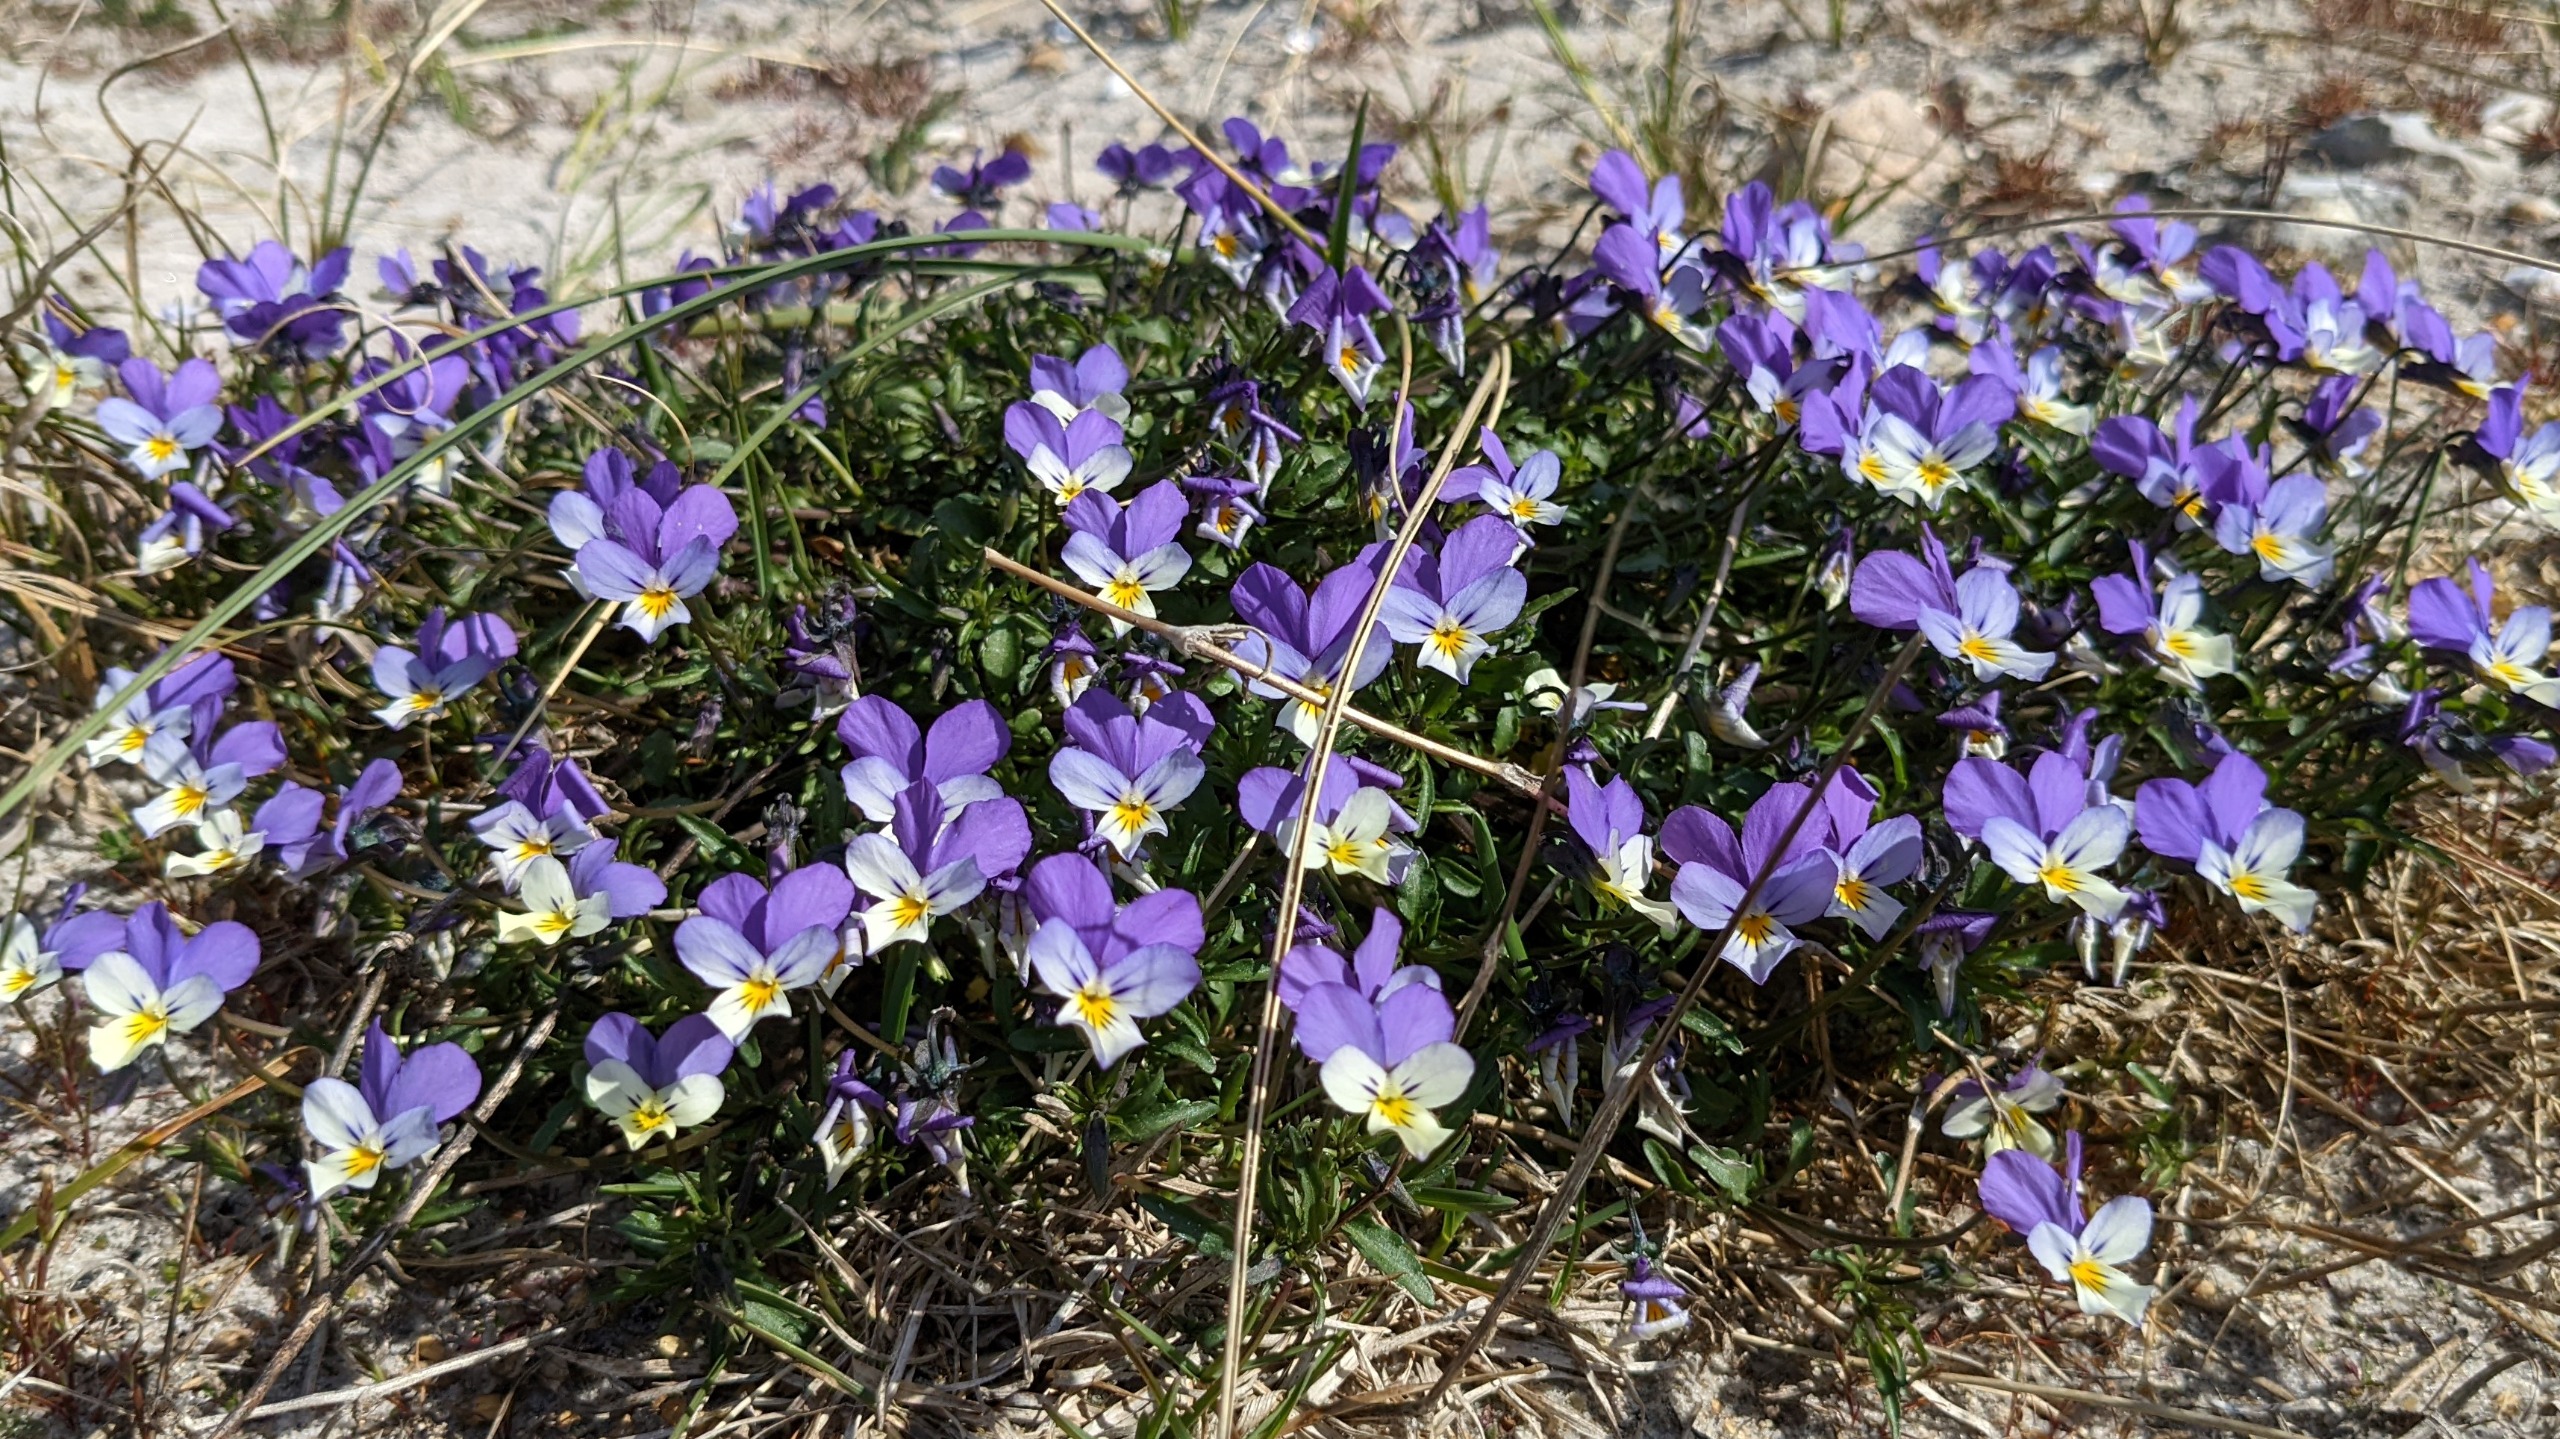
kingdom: Plantae
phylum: Tracheophyta
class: Magnoliopsida
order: Malpighiales
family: Violaceae
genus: Viola
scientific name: Viola tricolor
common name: Stedmoderblomst
